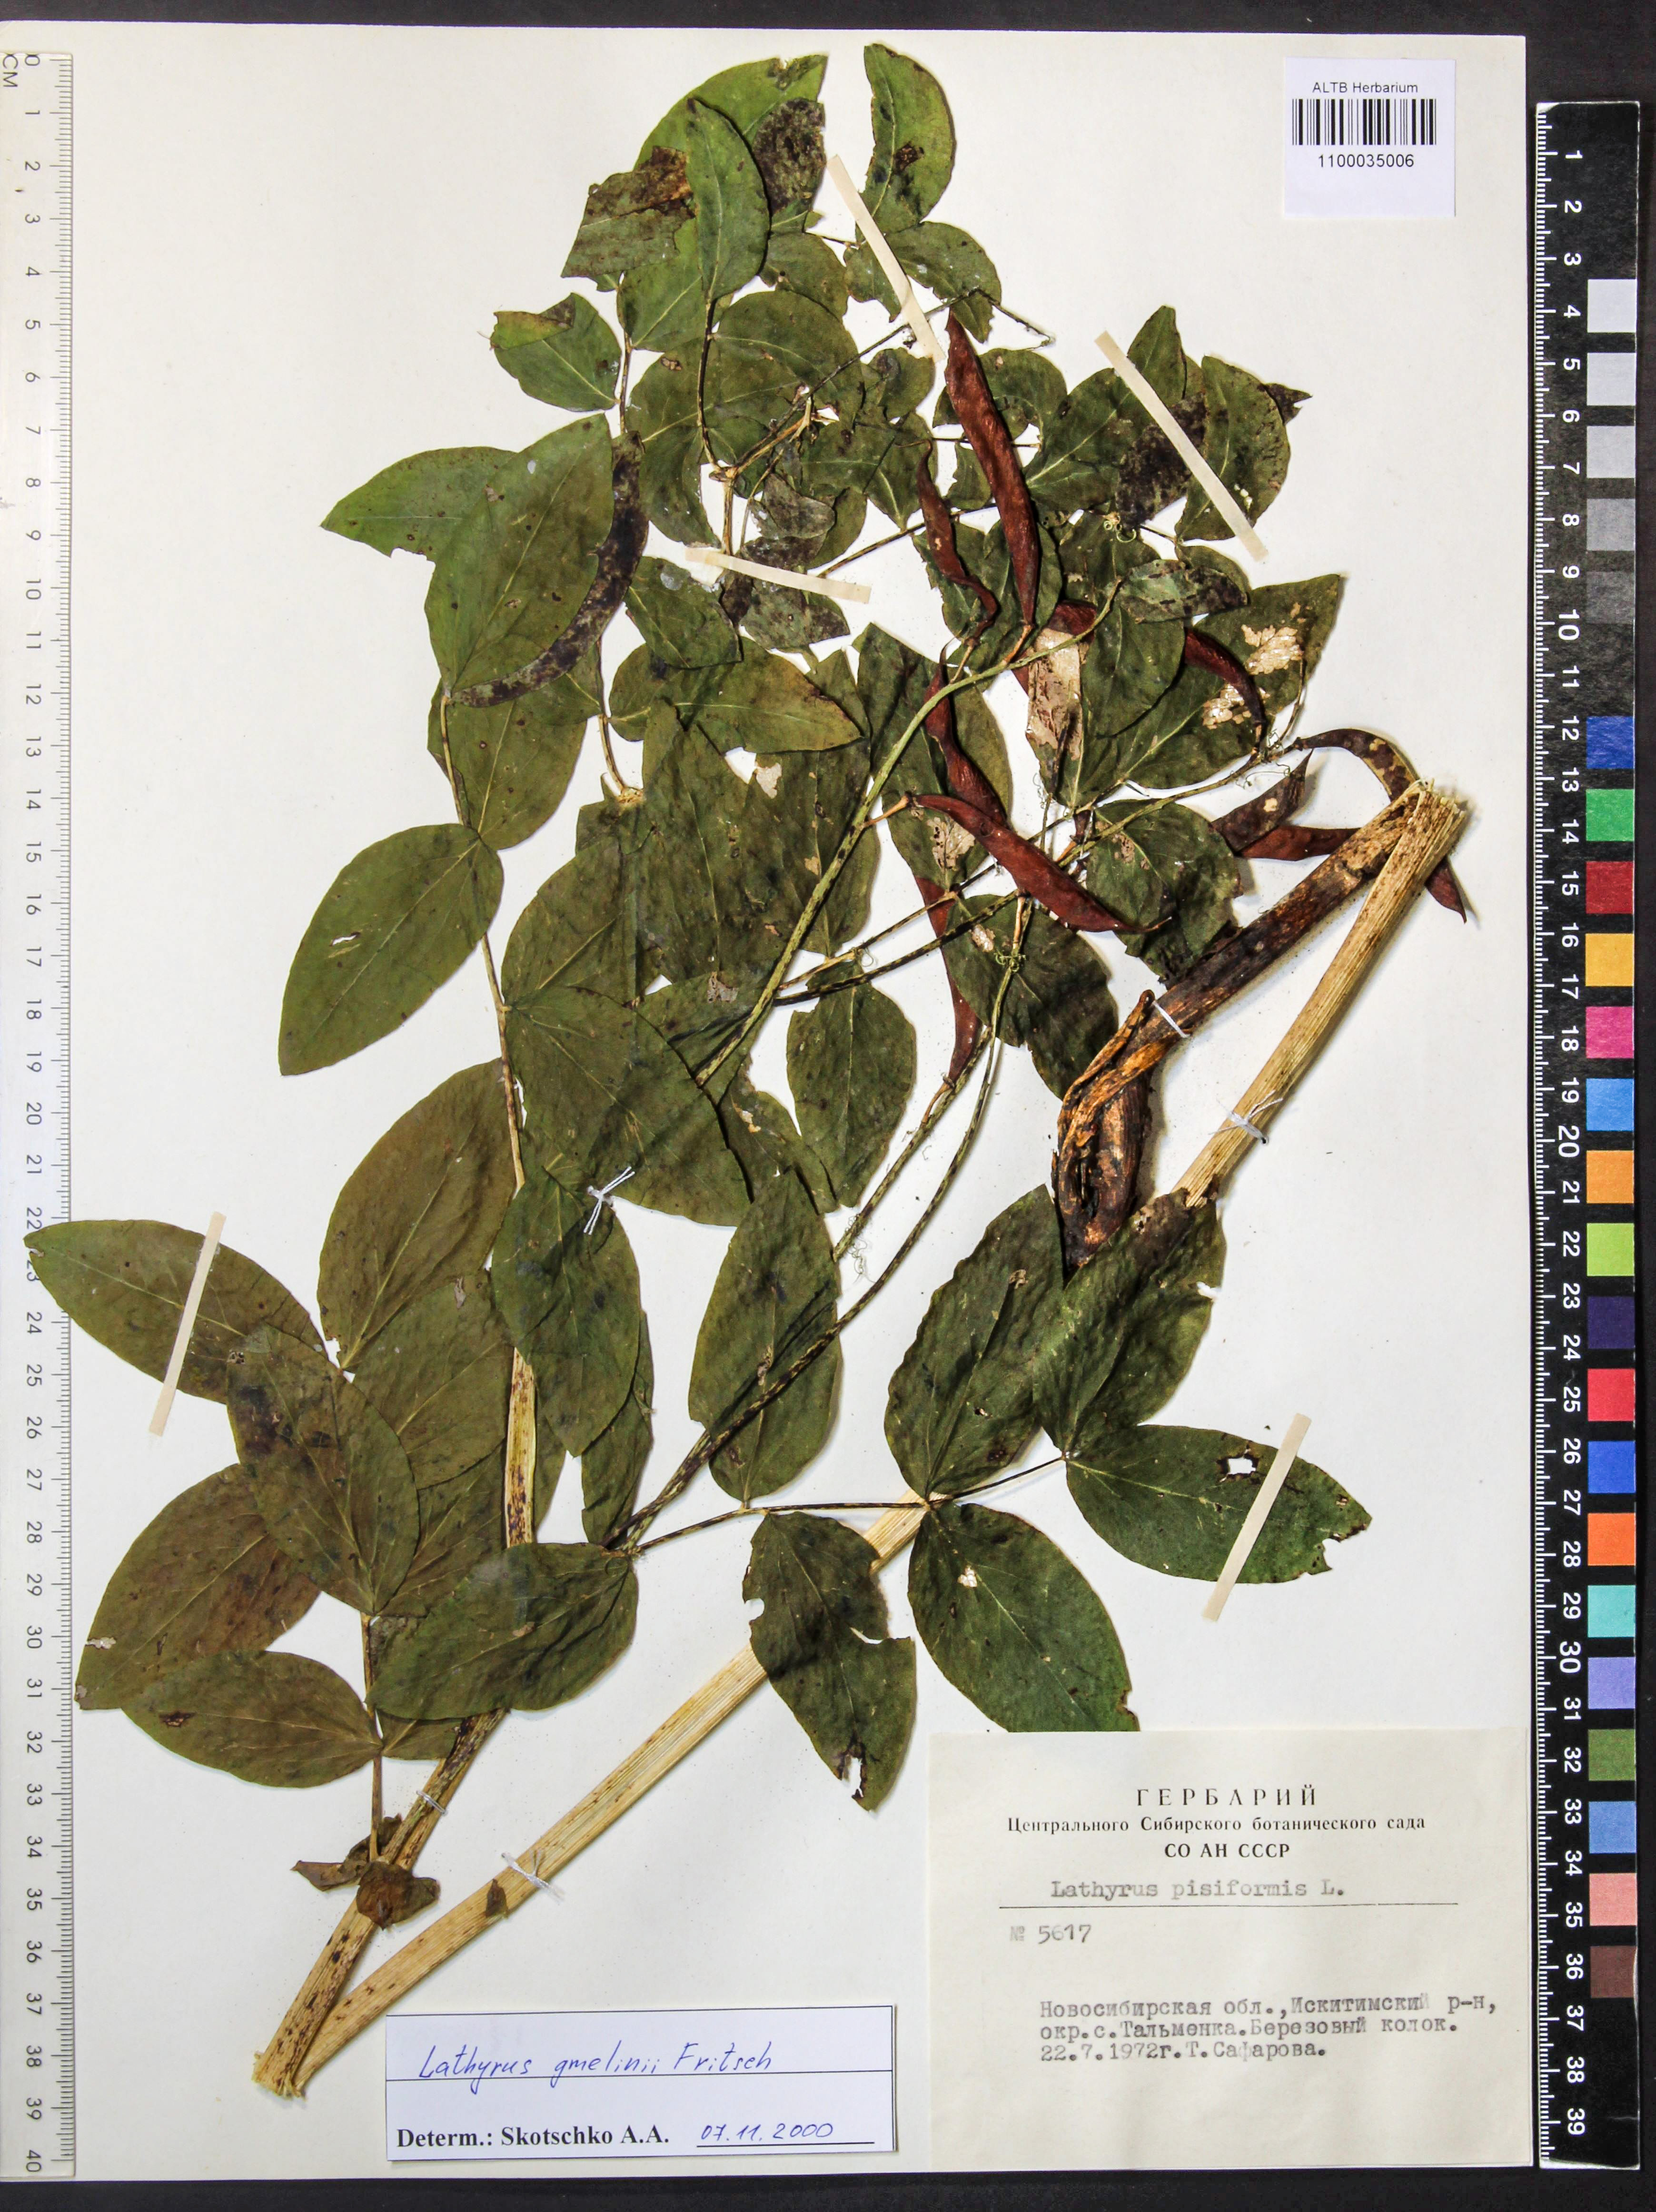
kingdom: Plantae
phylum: Tracheophyta
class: Magnoliopsida
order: Fabales
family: Fabaceae
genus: Lathyrus
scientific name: Lathyrus gmelinii
